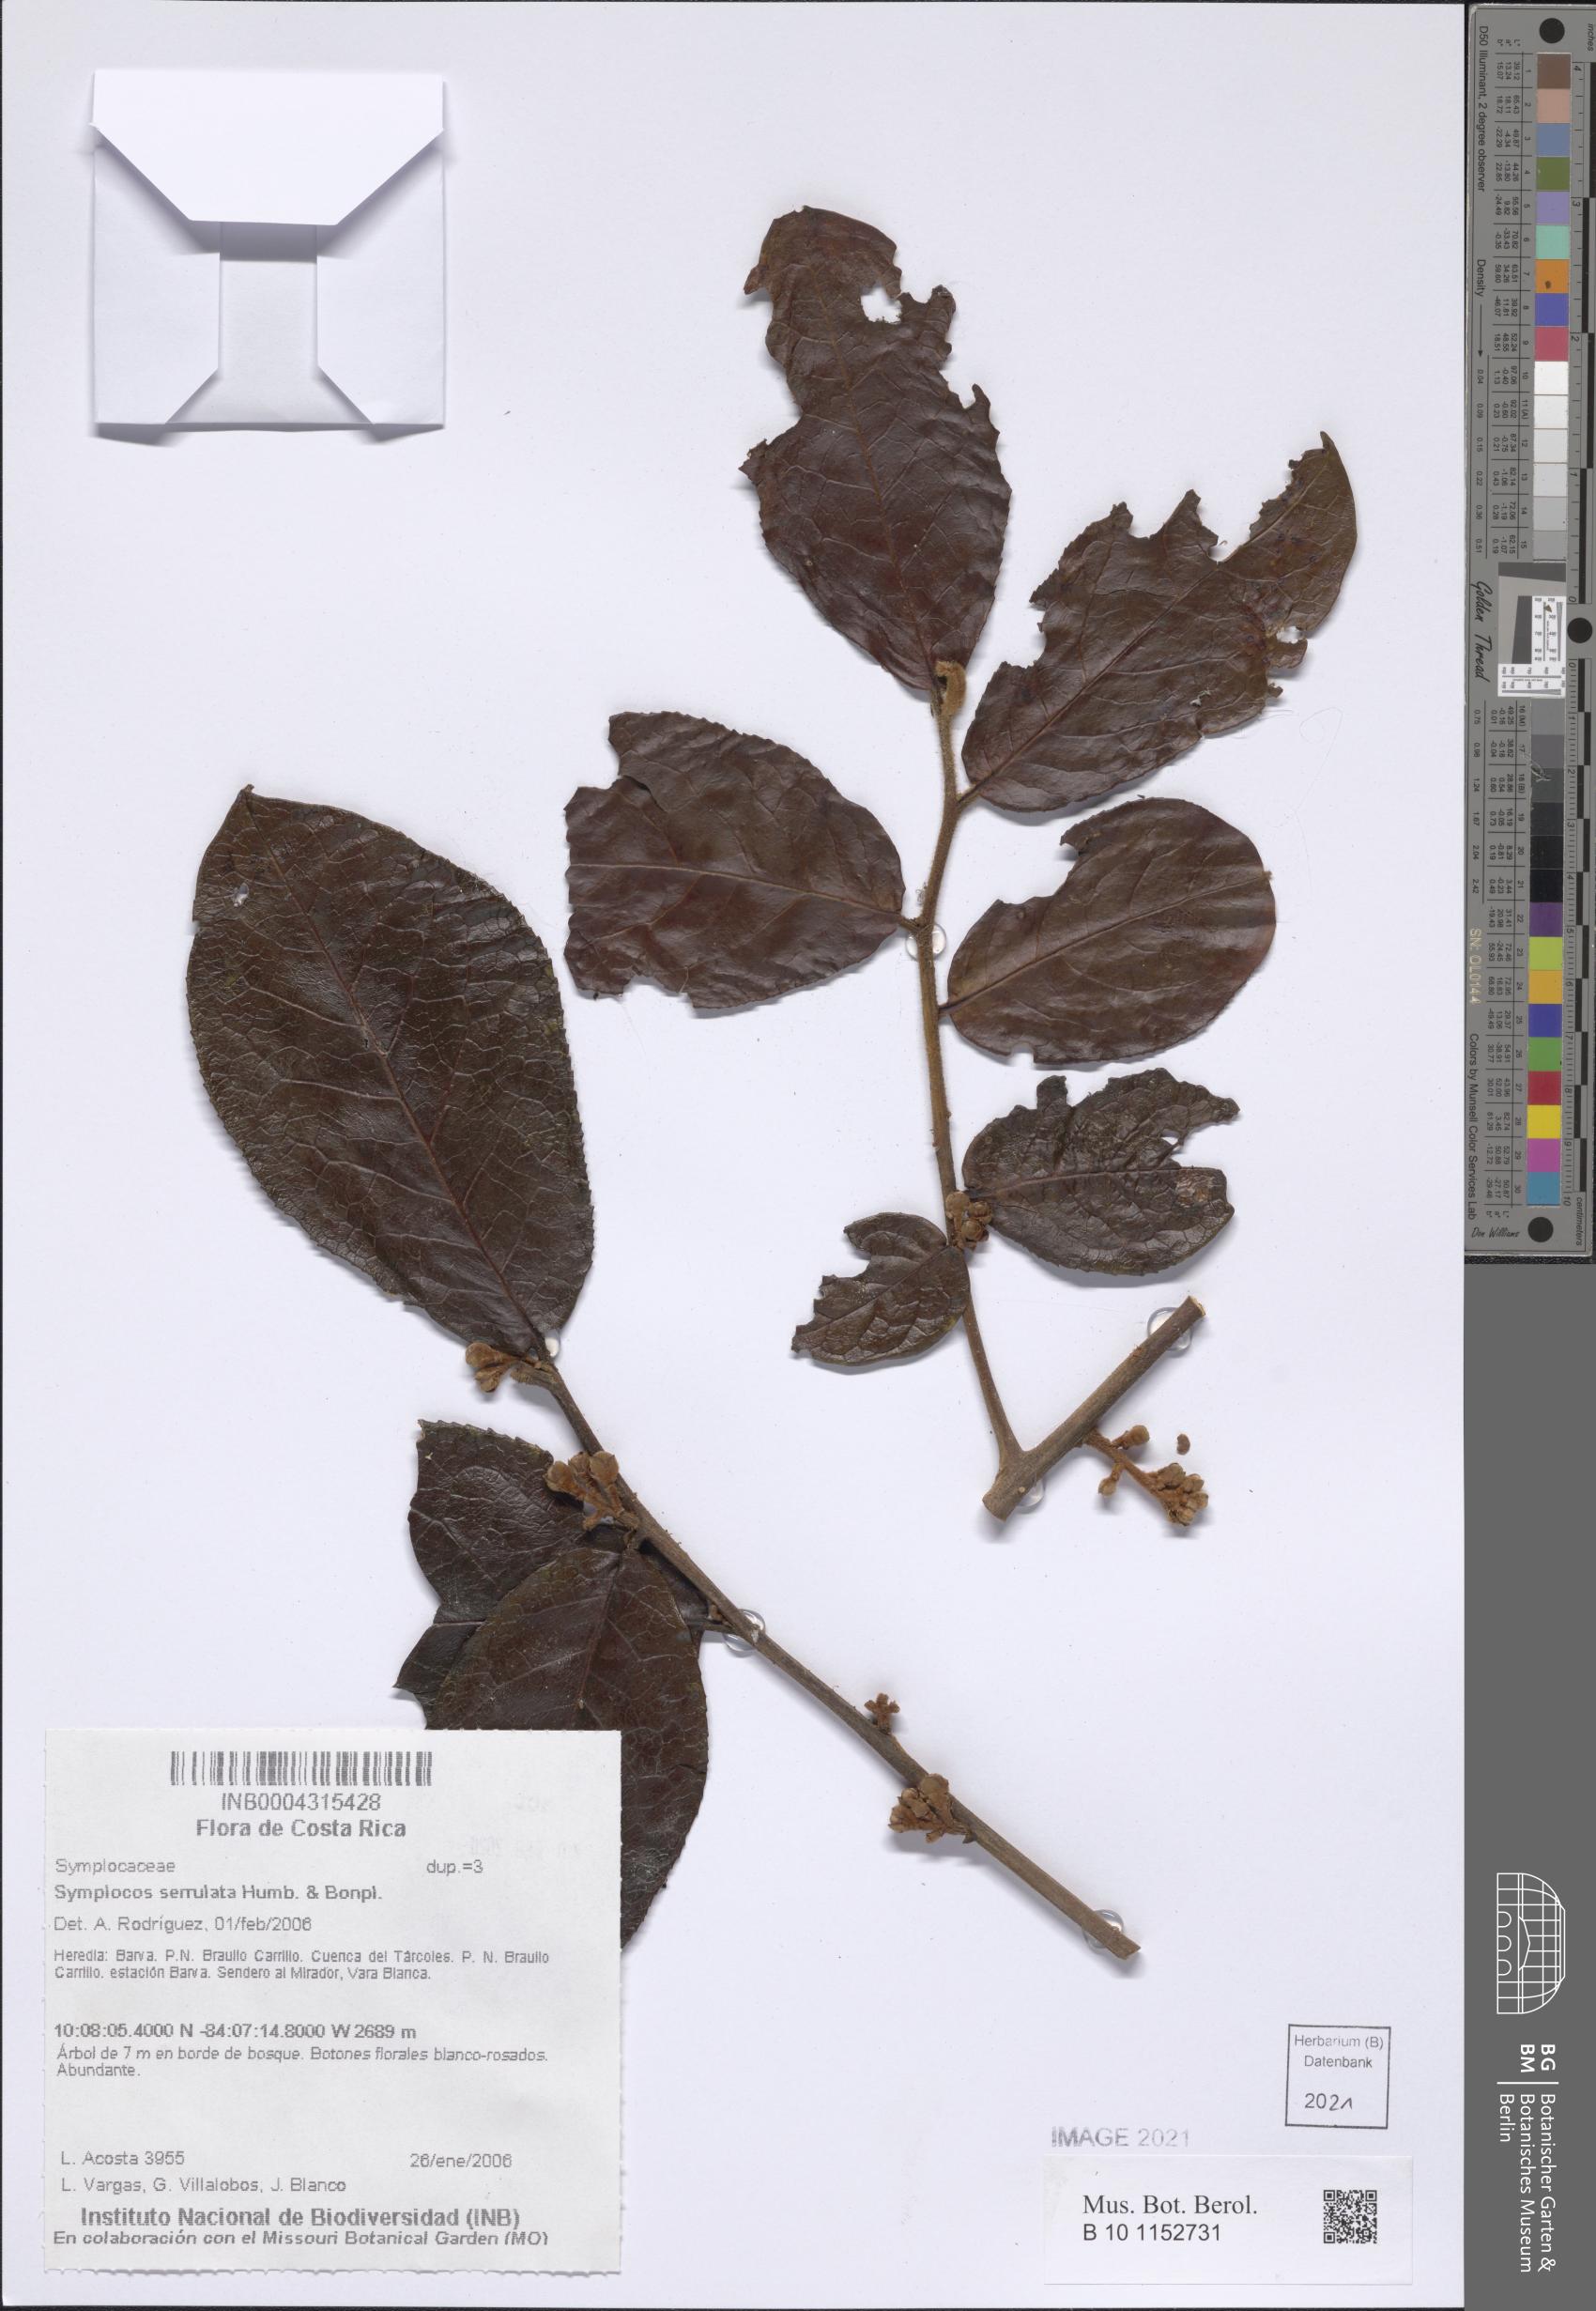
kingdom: Plantae
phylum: Tracheophyta
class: Magnoliopsida
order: Ericales
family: Symplocaceae
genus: Symplocos
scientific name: Symplocos serrulata
